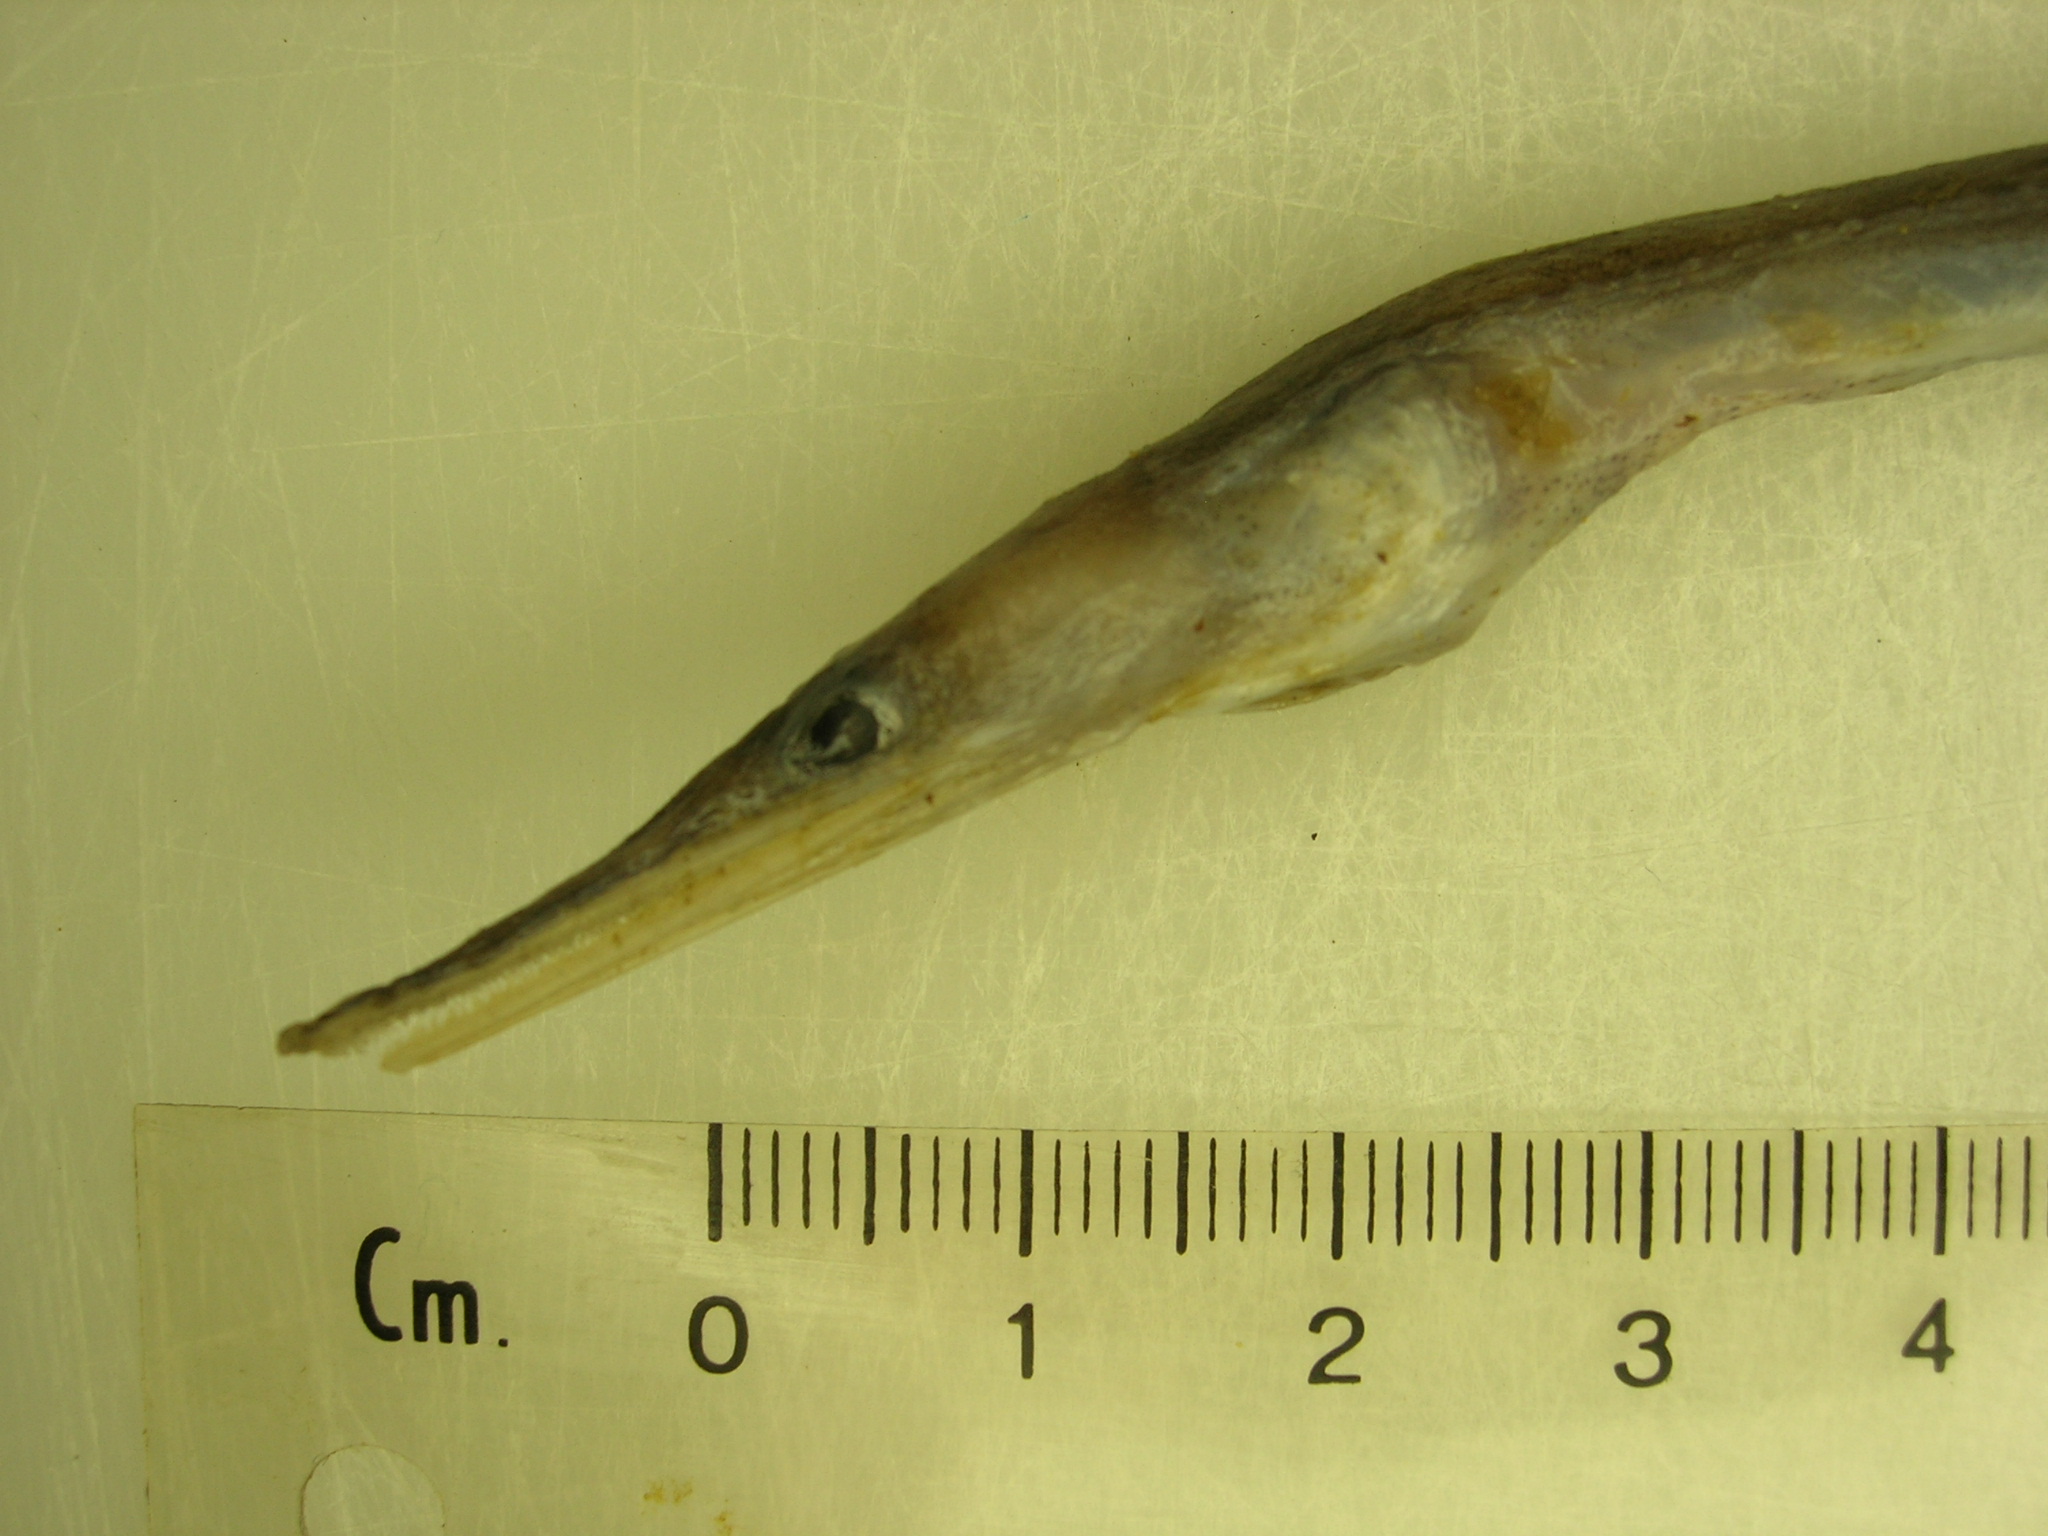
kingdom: Animalia
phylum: Chordata
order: Anguilliformes
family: Nettastomatidae
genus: Nettastoma
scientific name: Nettastoma parviceps
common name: Duck-billed eel
